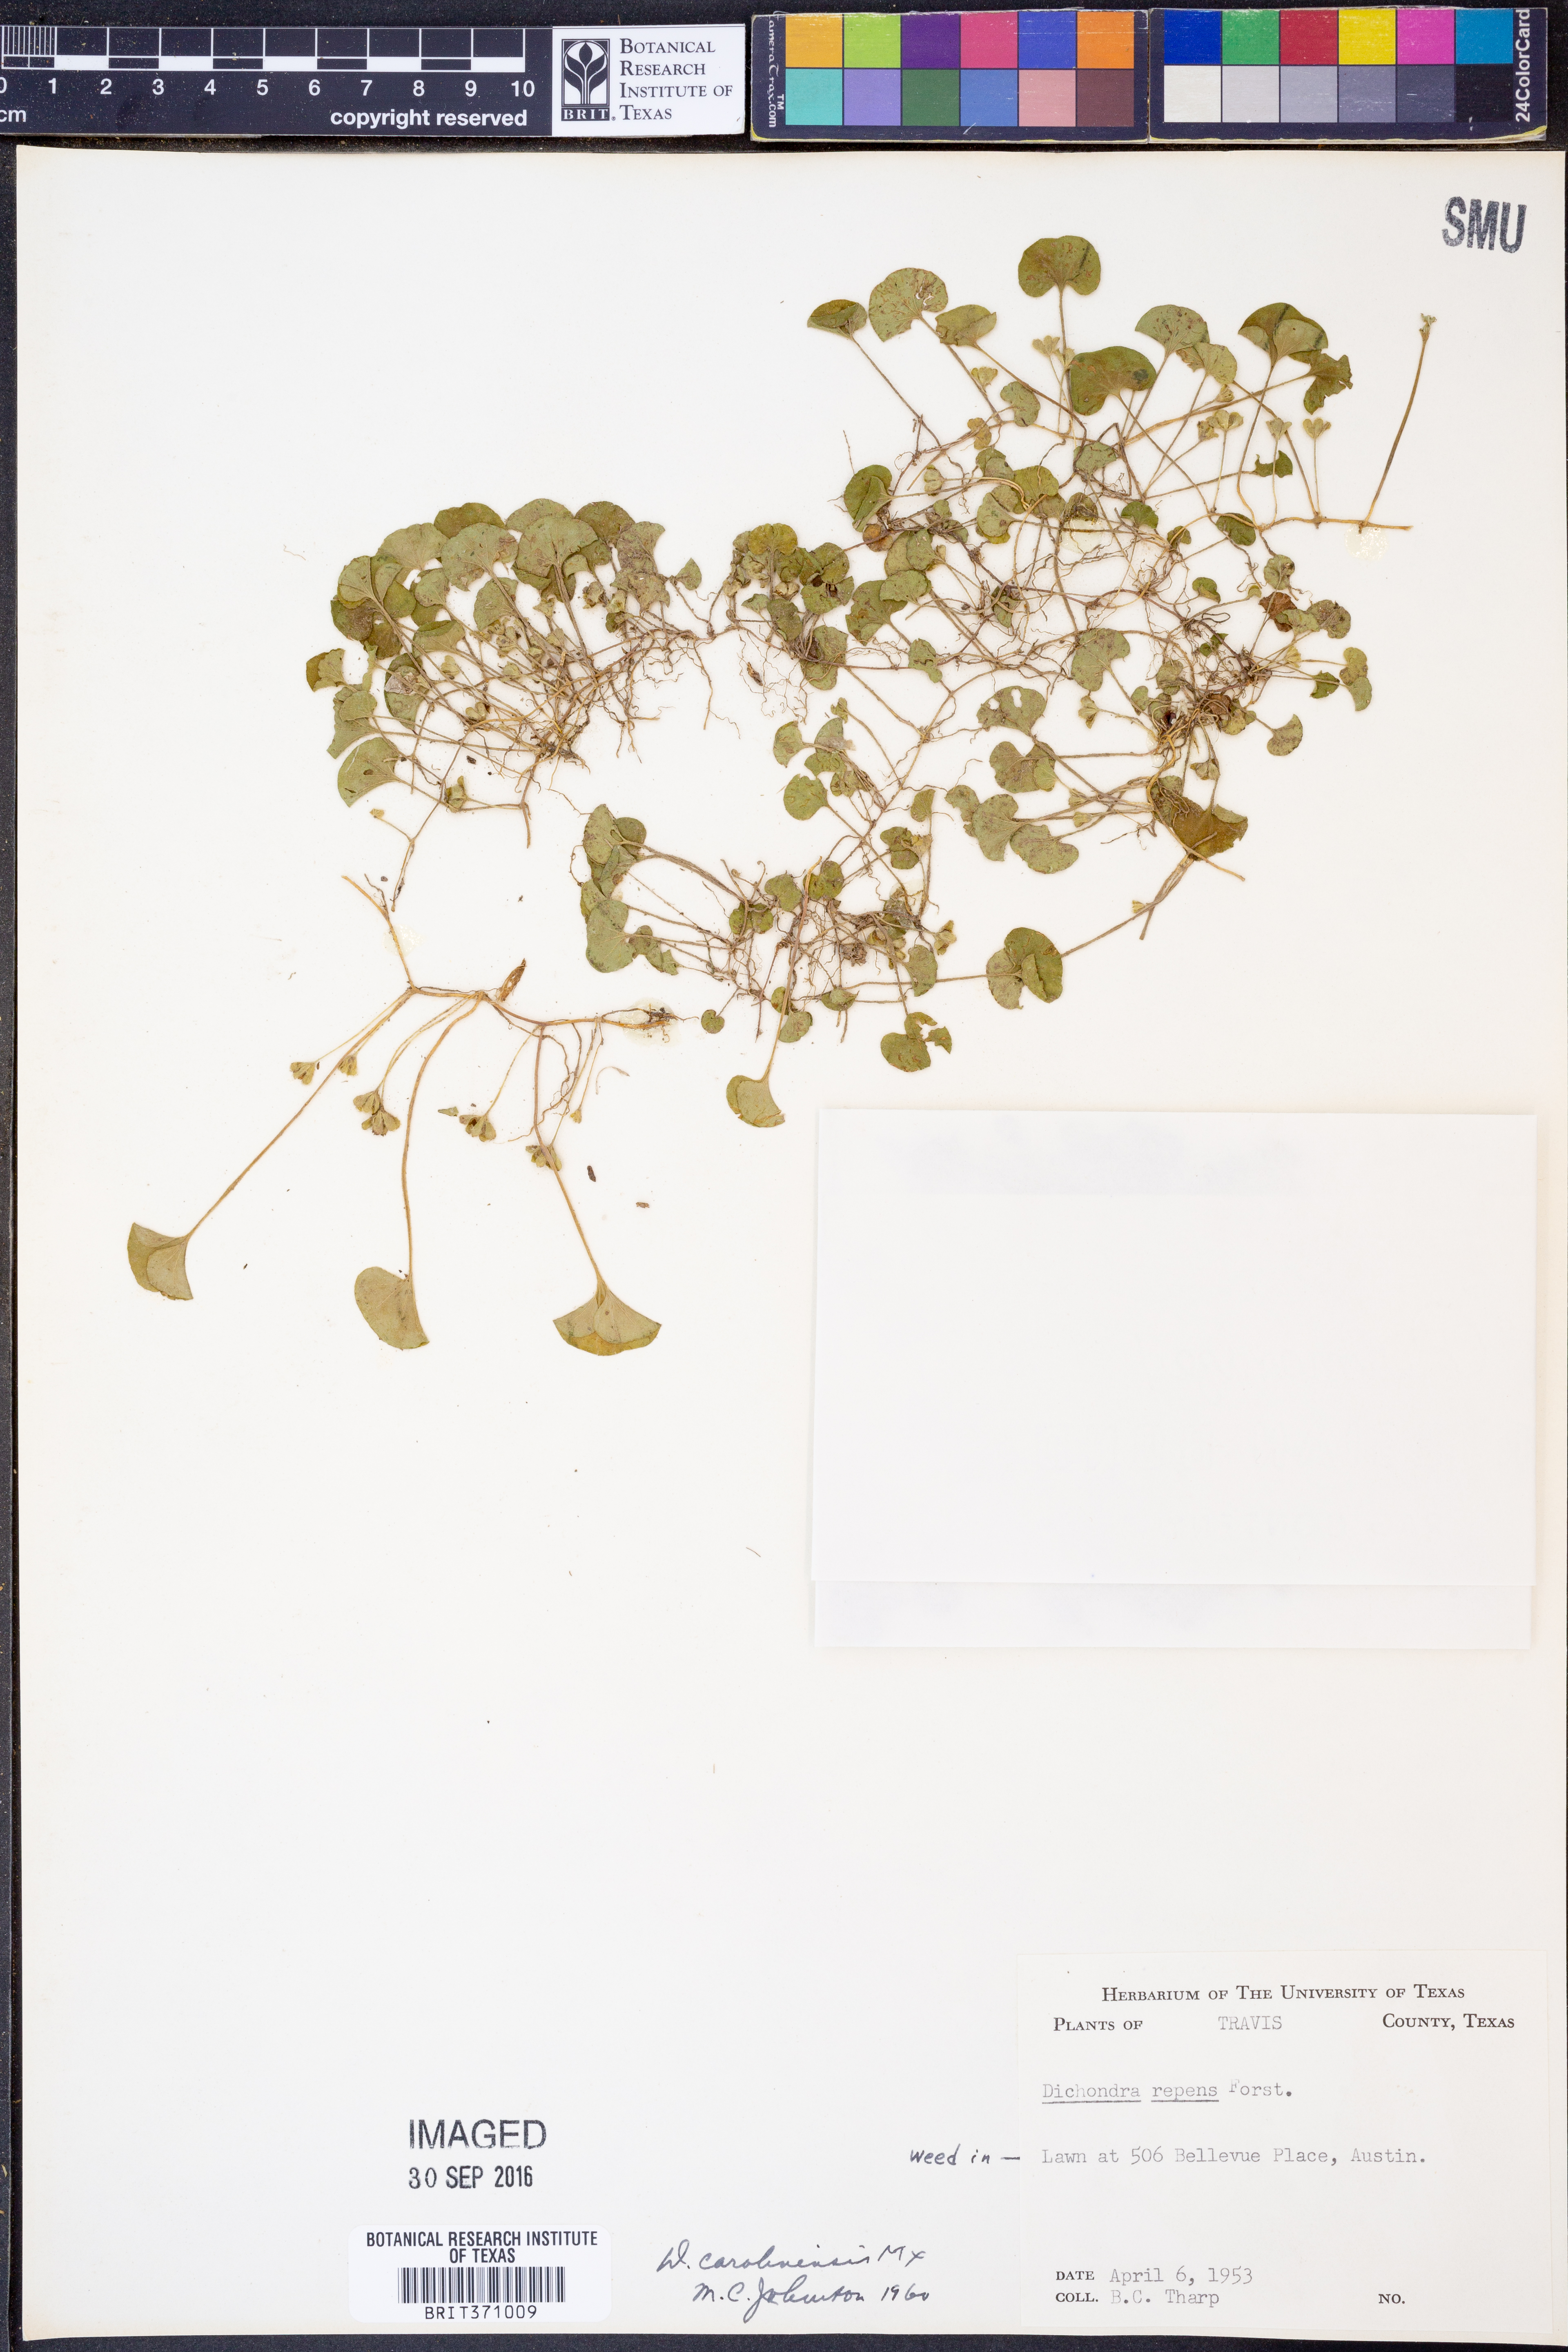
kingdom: Plantae
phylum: Tracheophyta
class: Magnoliopsida
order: Solanales
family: Convolvulaceae
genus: Dichondra
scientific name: Dichondra carolinensis
